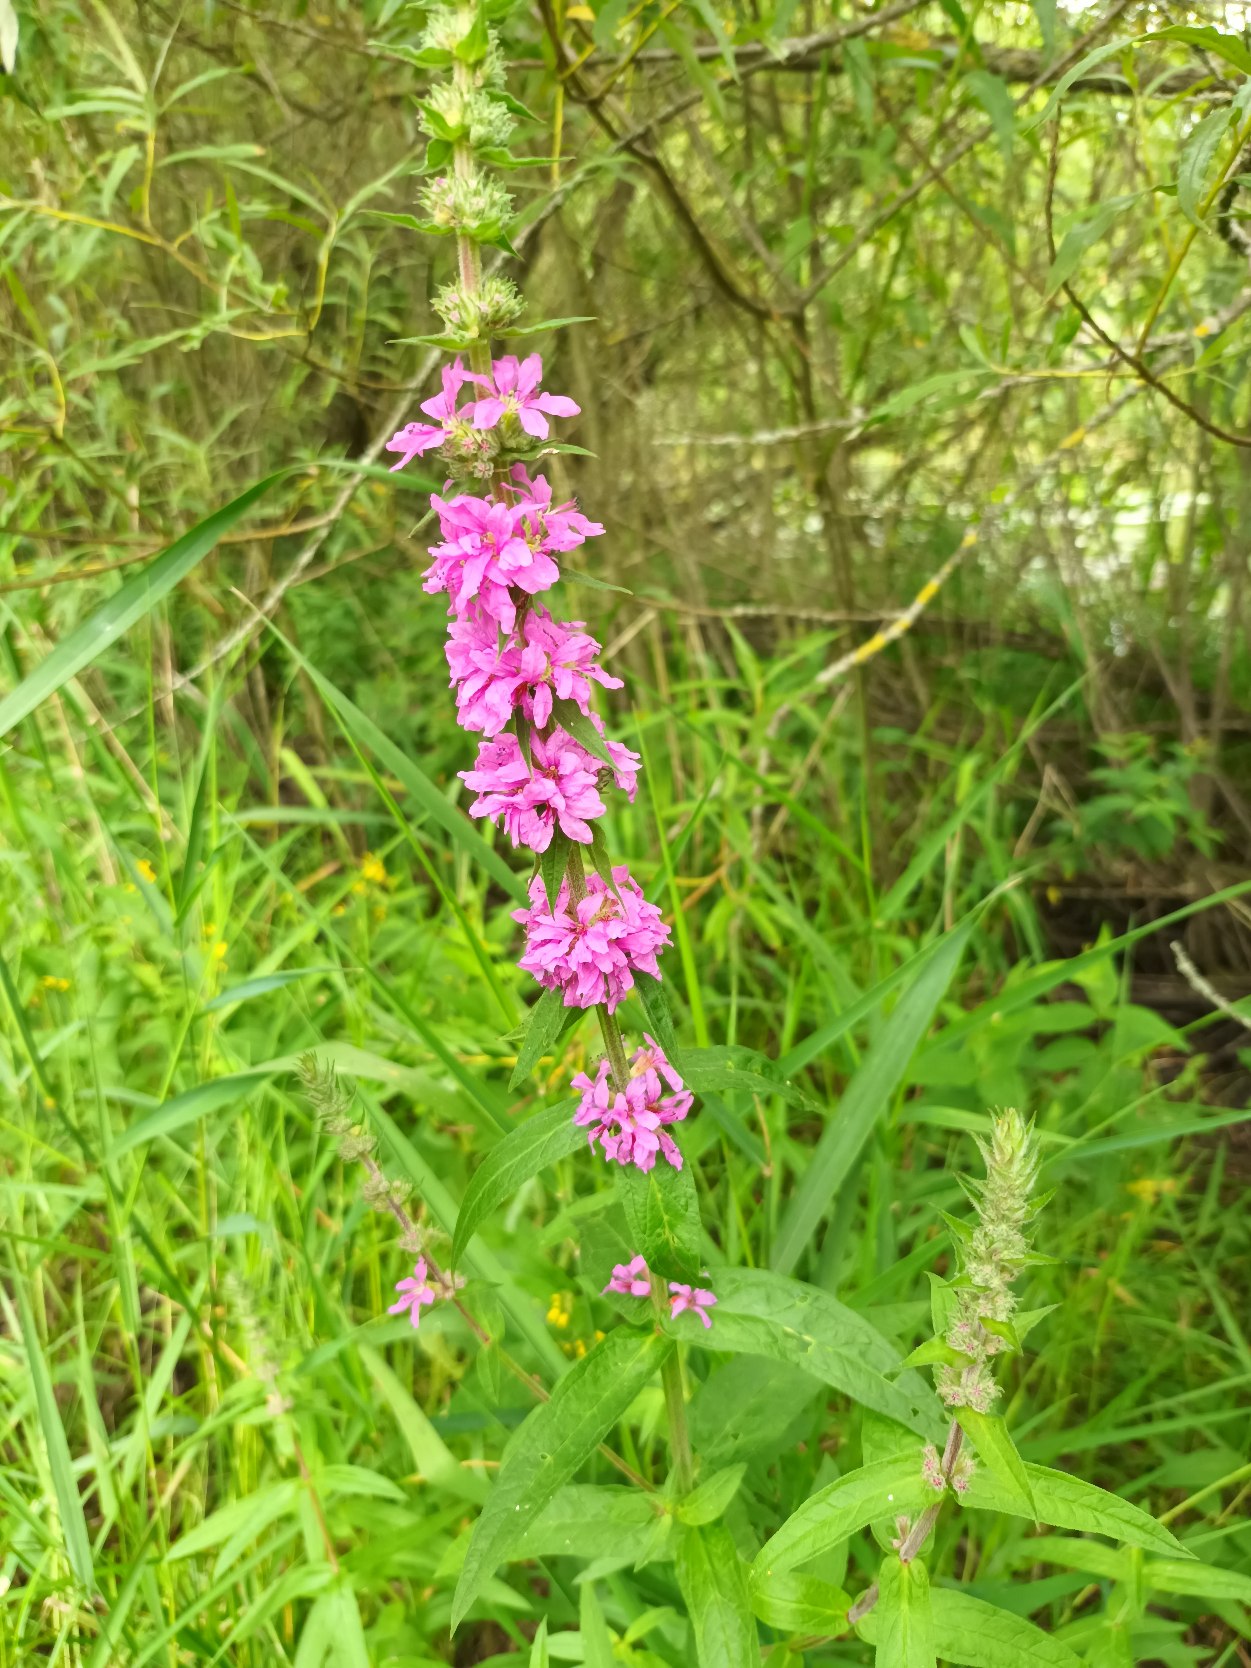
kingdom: Plantae
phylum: Tracheophyta
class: Magnoliopsida
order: Myrtales
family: Lythraceae
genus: Lythrum
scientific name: Lythrum salicaria
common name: Kattehale
